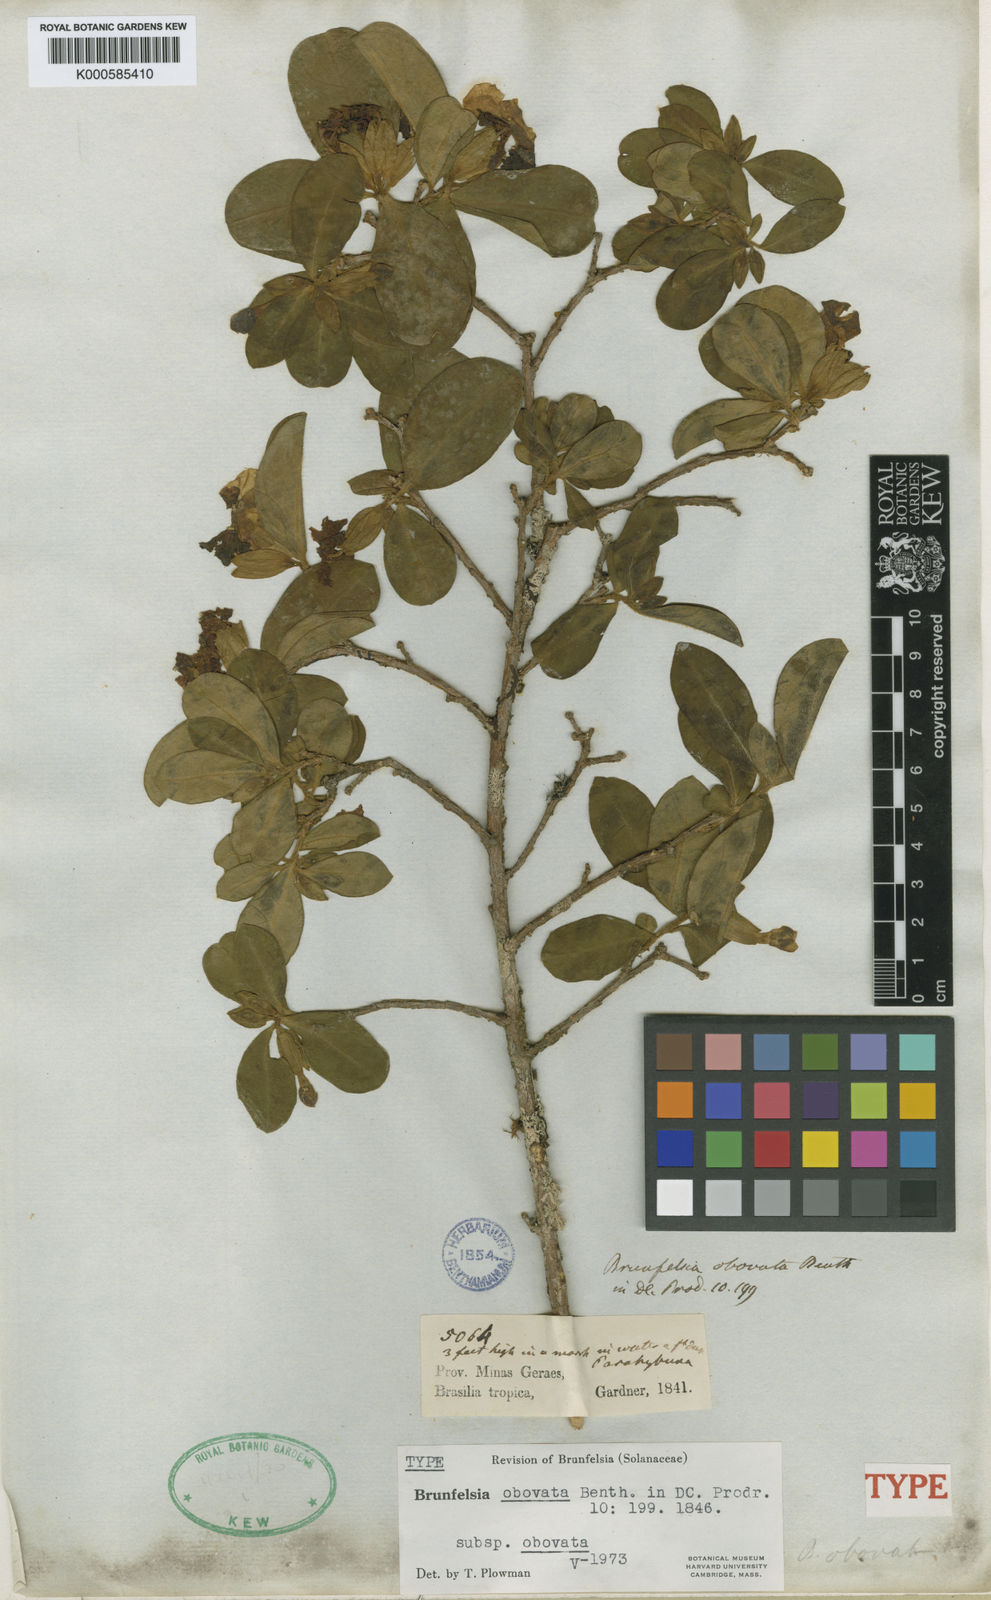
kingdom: Plantae
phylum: Tracheophyta
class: Magnoliopsida
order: Solanales
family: Solanaceae
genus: Brunfelsia
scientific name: Brunfelsia obovata
